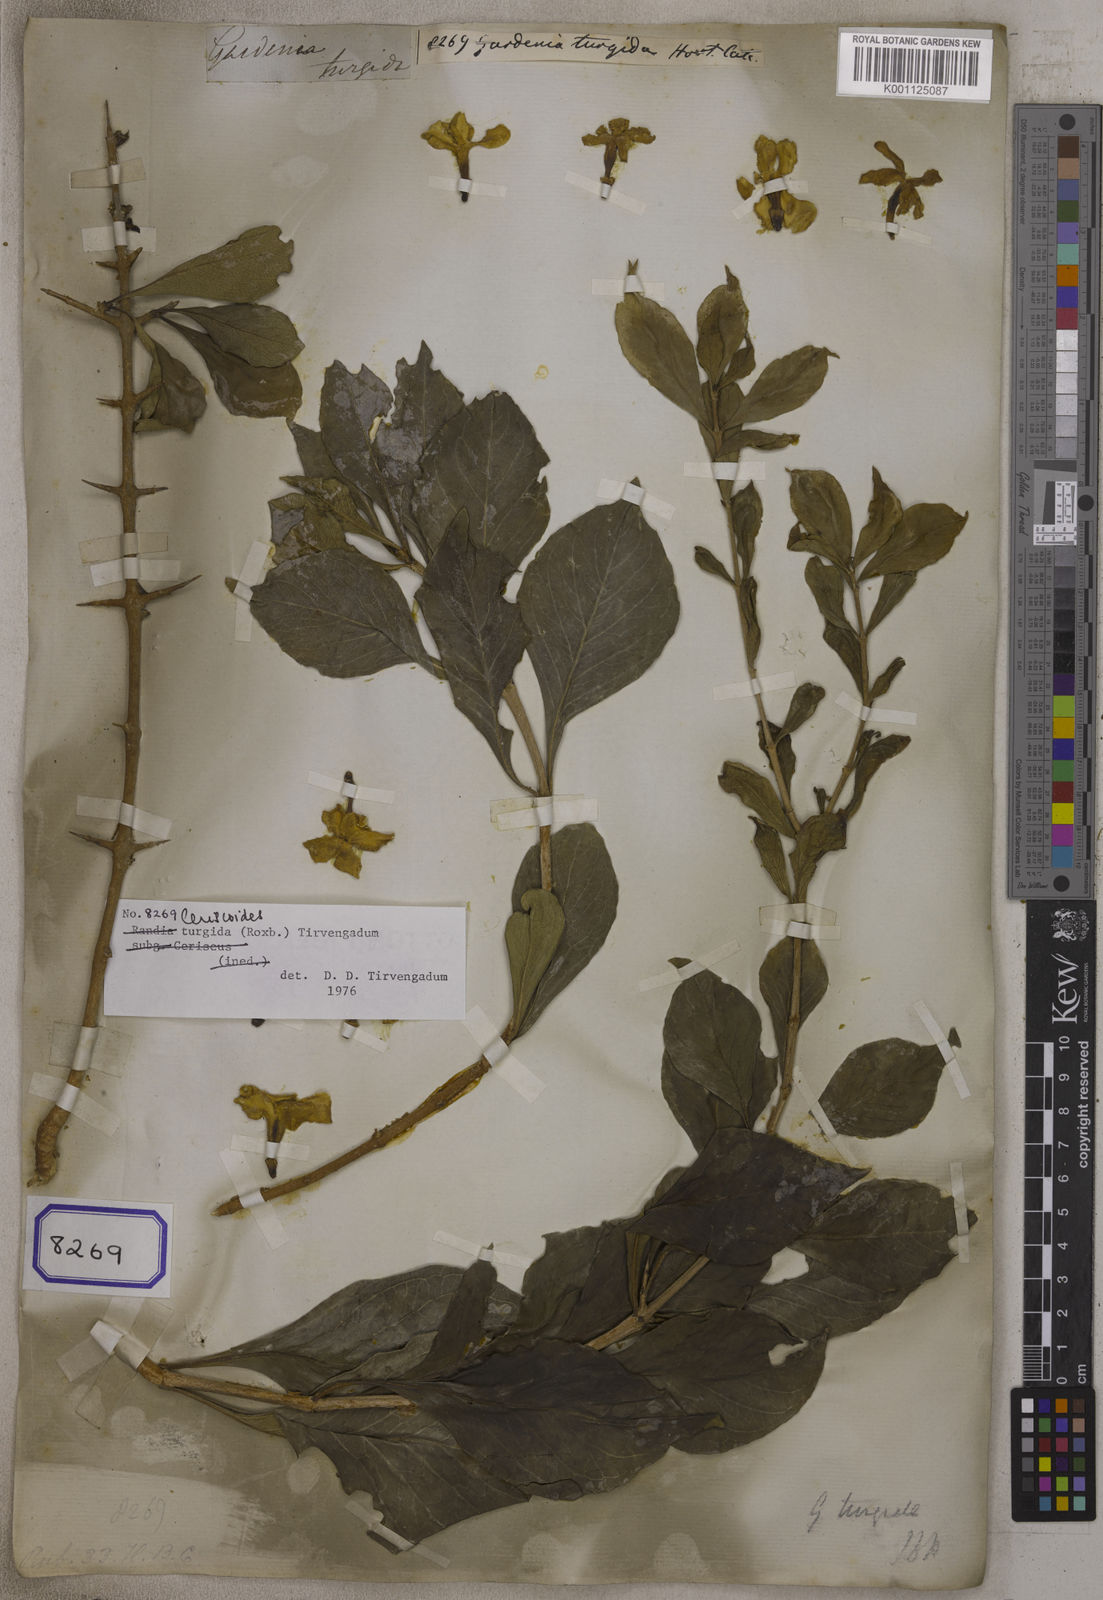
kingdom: Plantae
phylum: Tracheophyta
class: Magnoliopsida
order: Gentianales
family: Rubiaceae
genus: Ceriscoides
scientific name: Ceriscoides turgida
